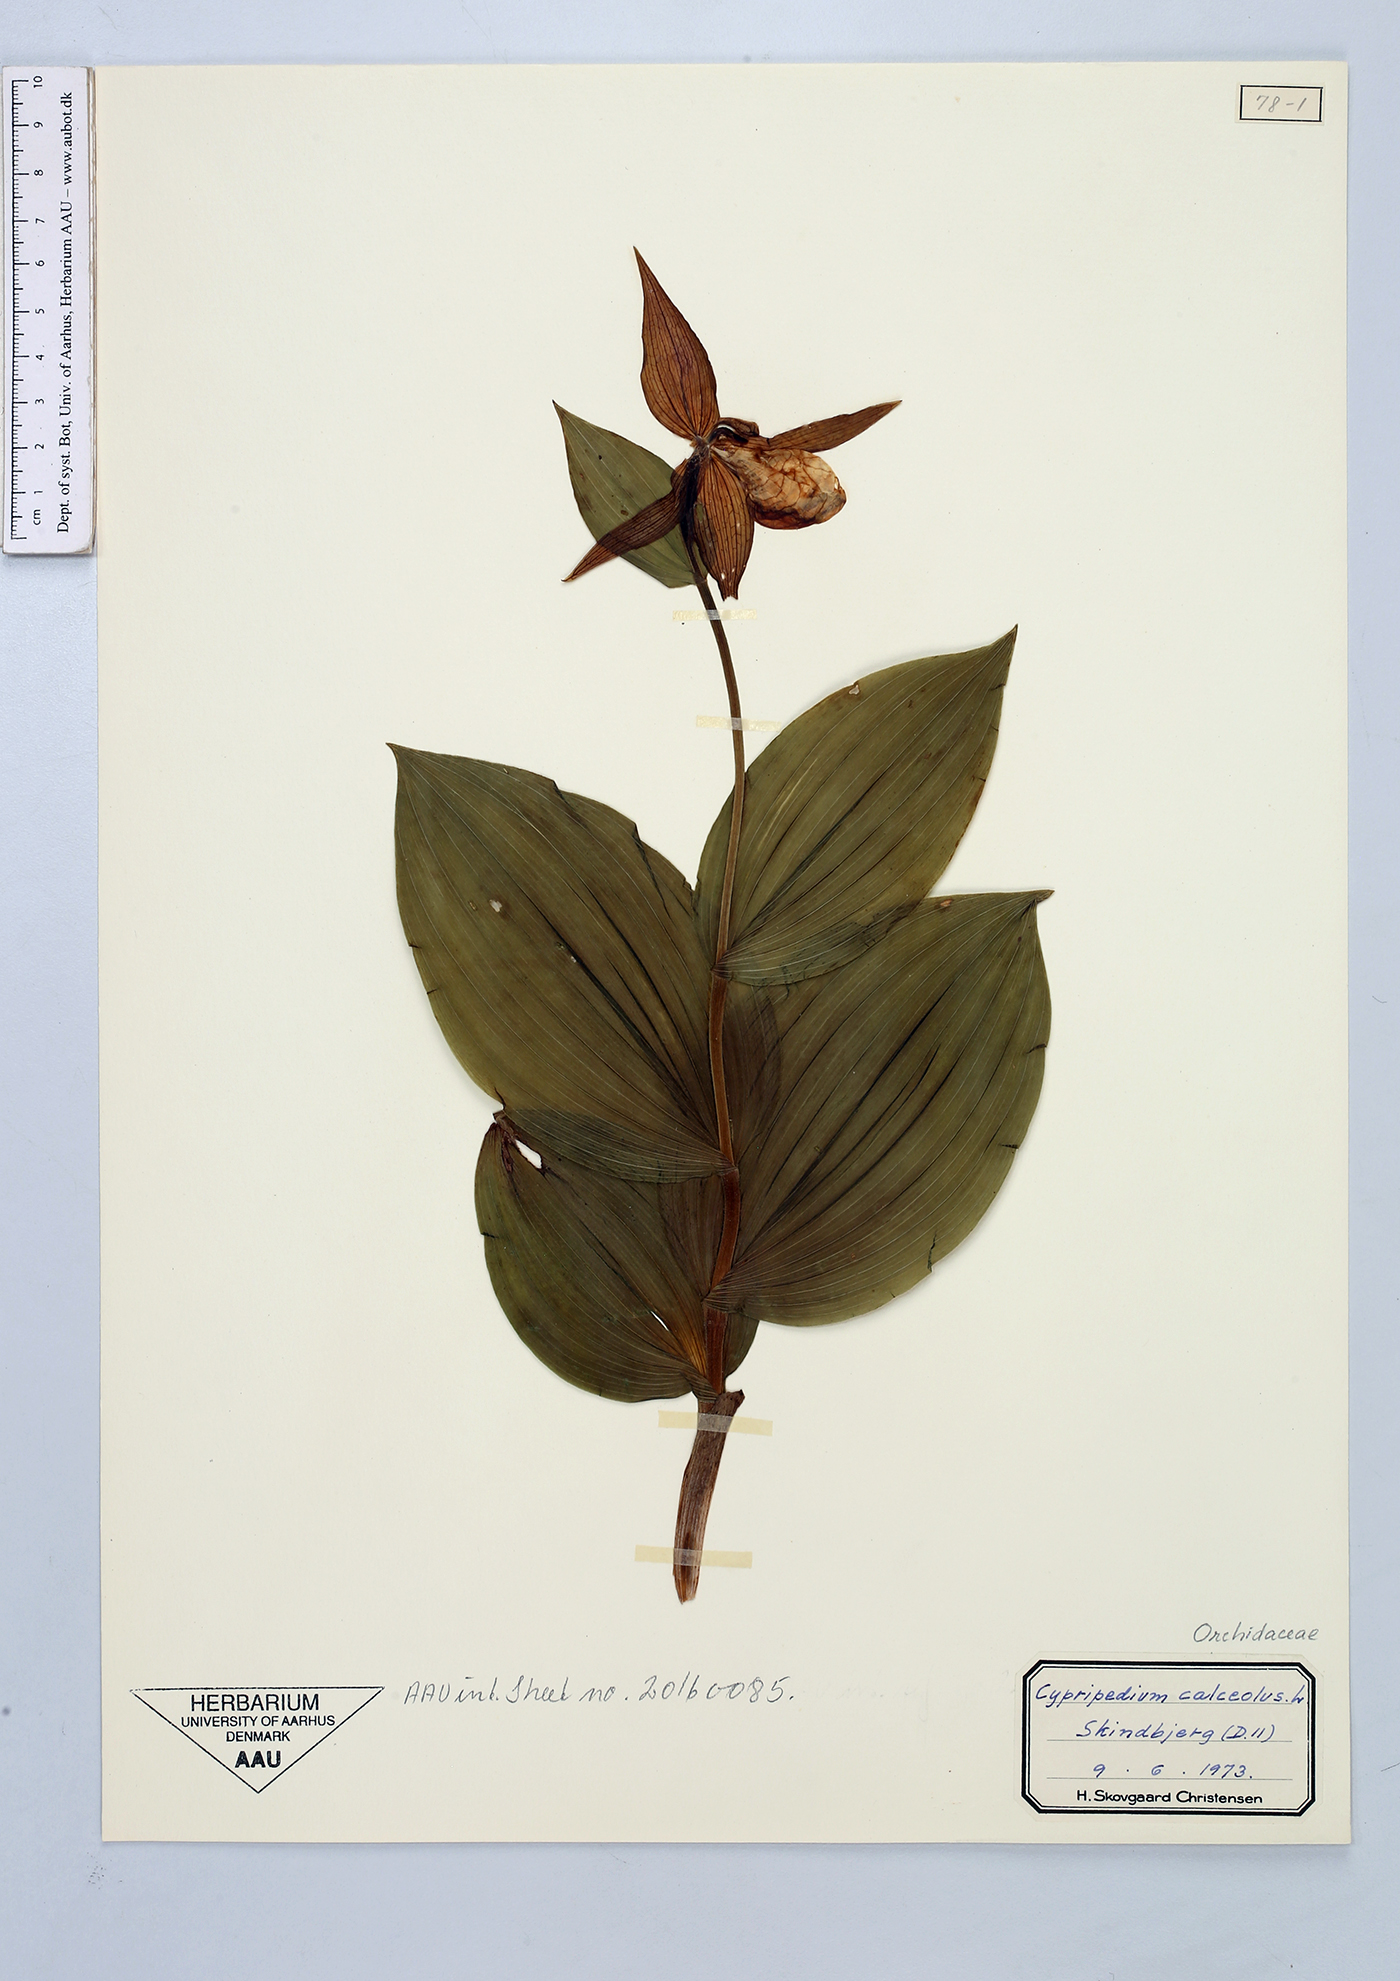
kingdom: Plantae
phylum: Tracheophyta
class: Liliopsida
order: Asparagales
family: Orchidaceae
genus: Cypripedium
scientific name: Cypripedium calceolus
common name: Lady's-slipper
